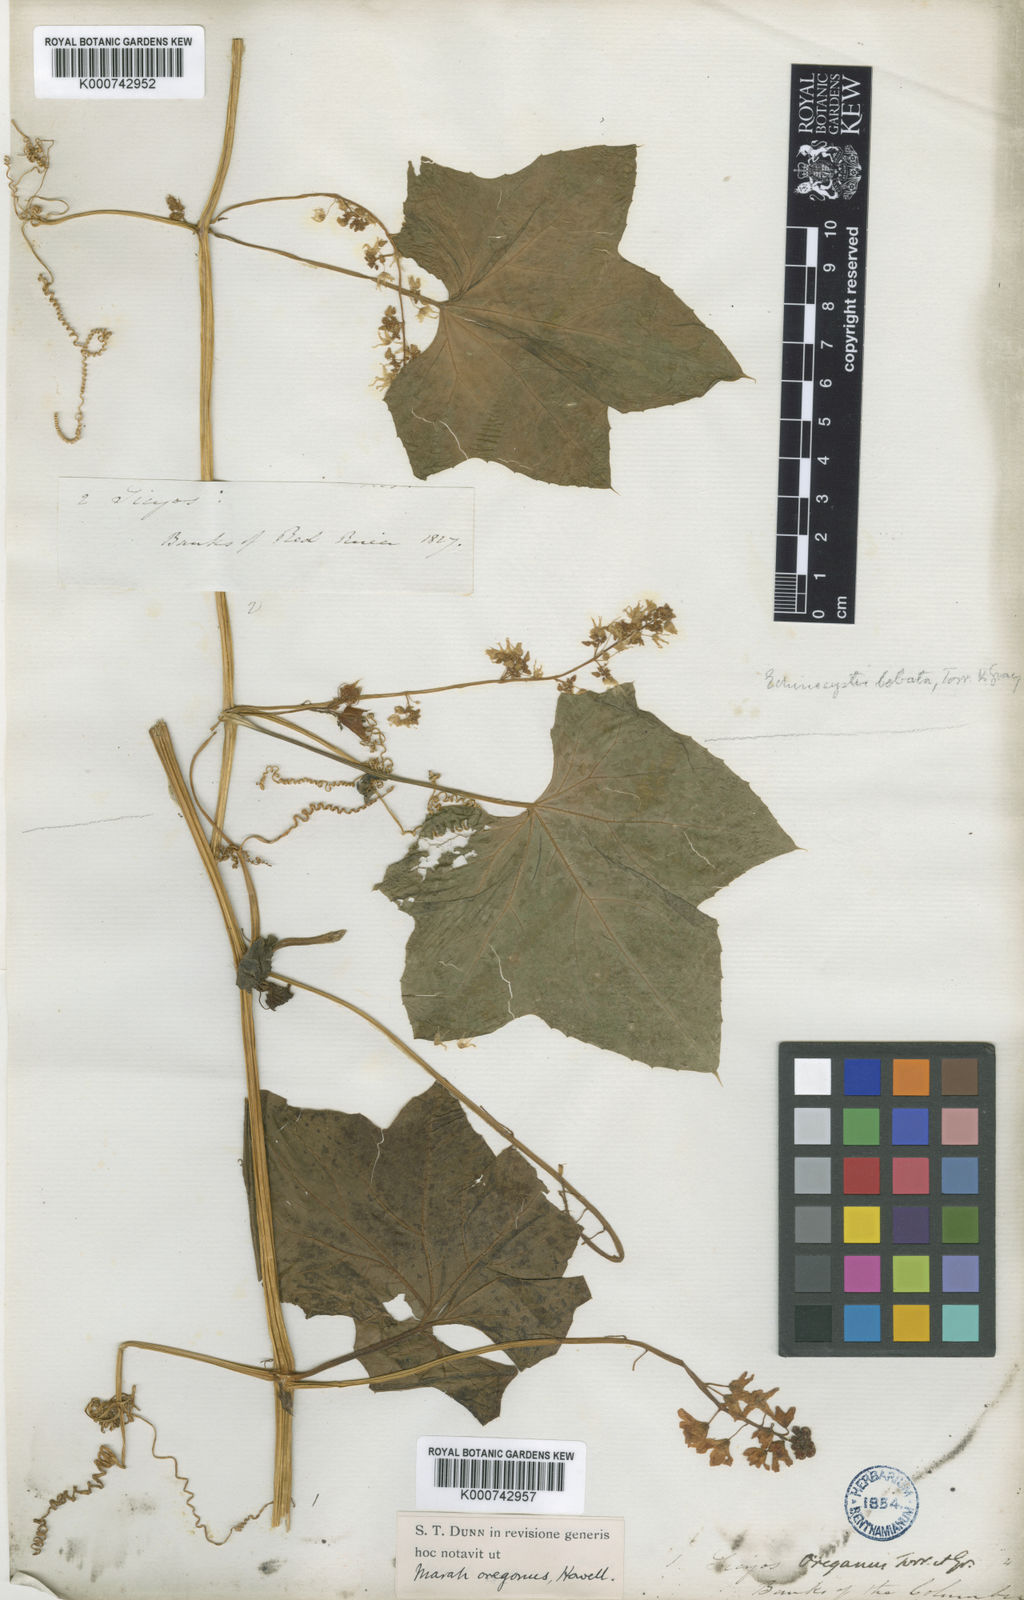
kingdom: Plantae
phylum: Tracheophyta
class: Magnoliopsida
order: Cucurbitales
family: Cucurbitaceae
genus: Marah
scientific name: Marah
